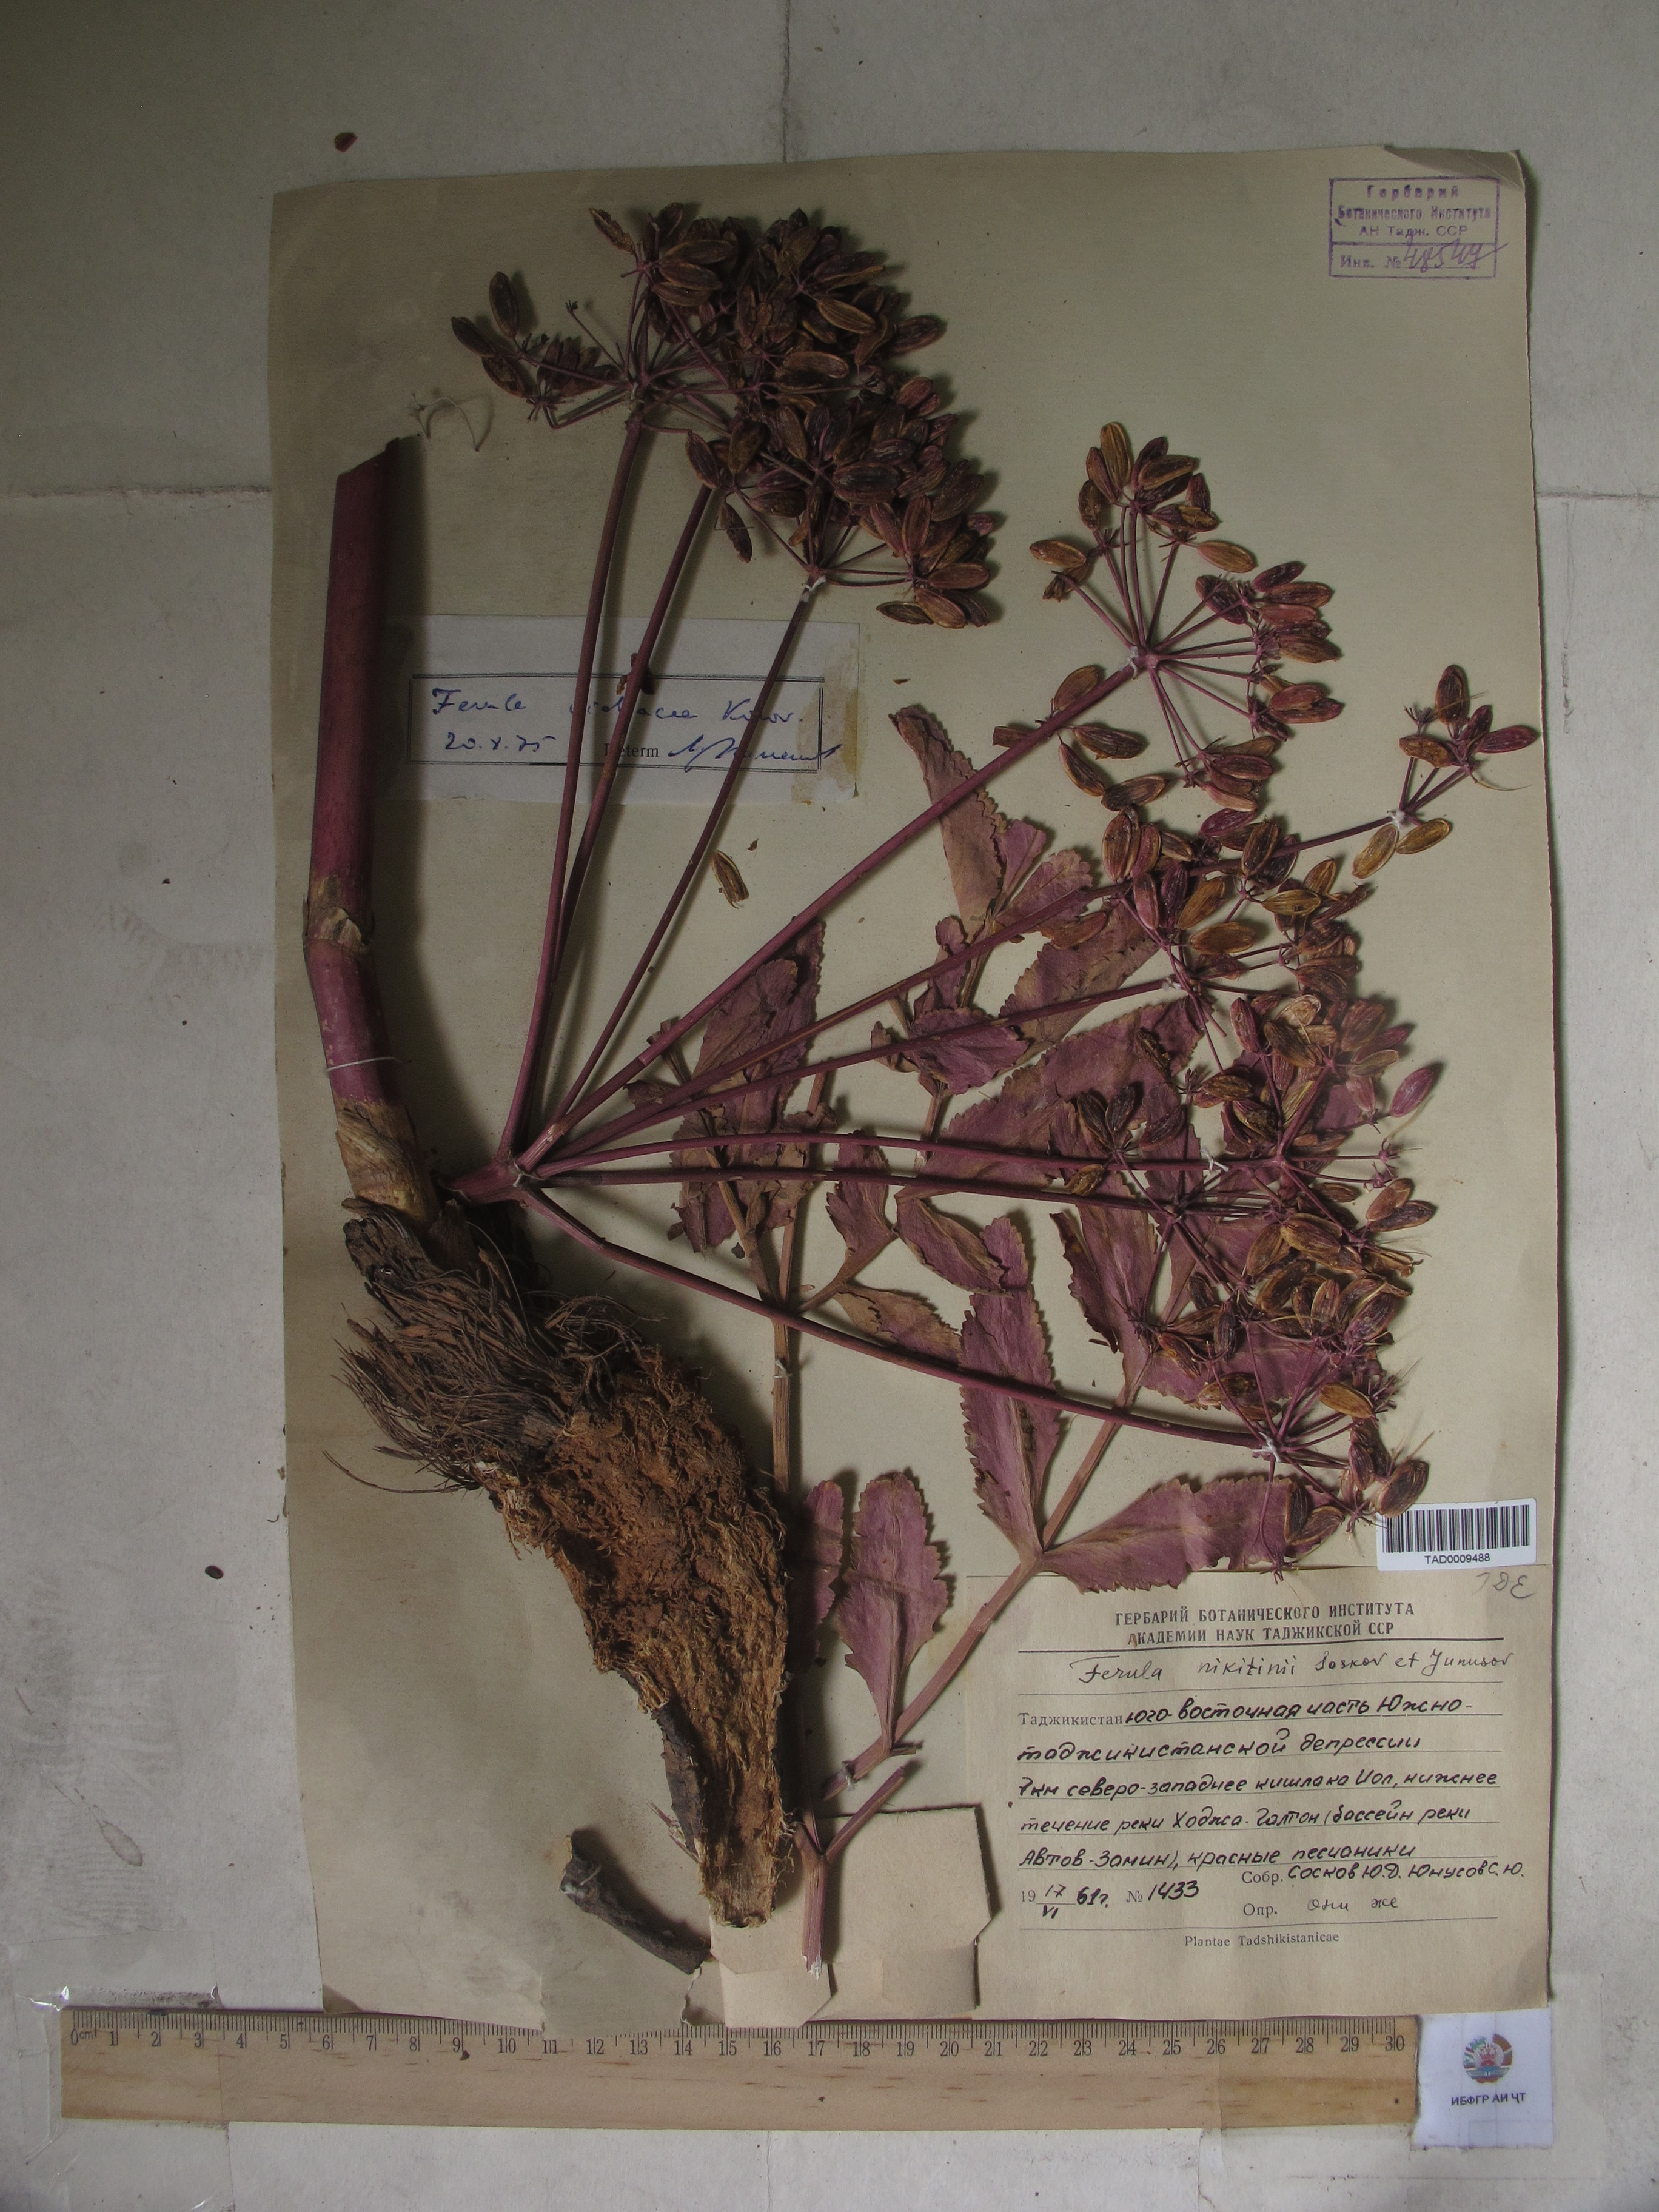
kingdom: Plantae
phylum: Tracheophyta
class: Magnoliopsida
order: Apiales
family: Apiaceae
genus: Ferula
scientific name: Ferula violacea
